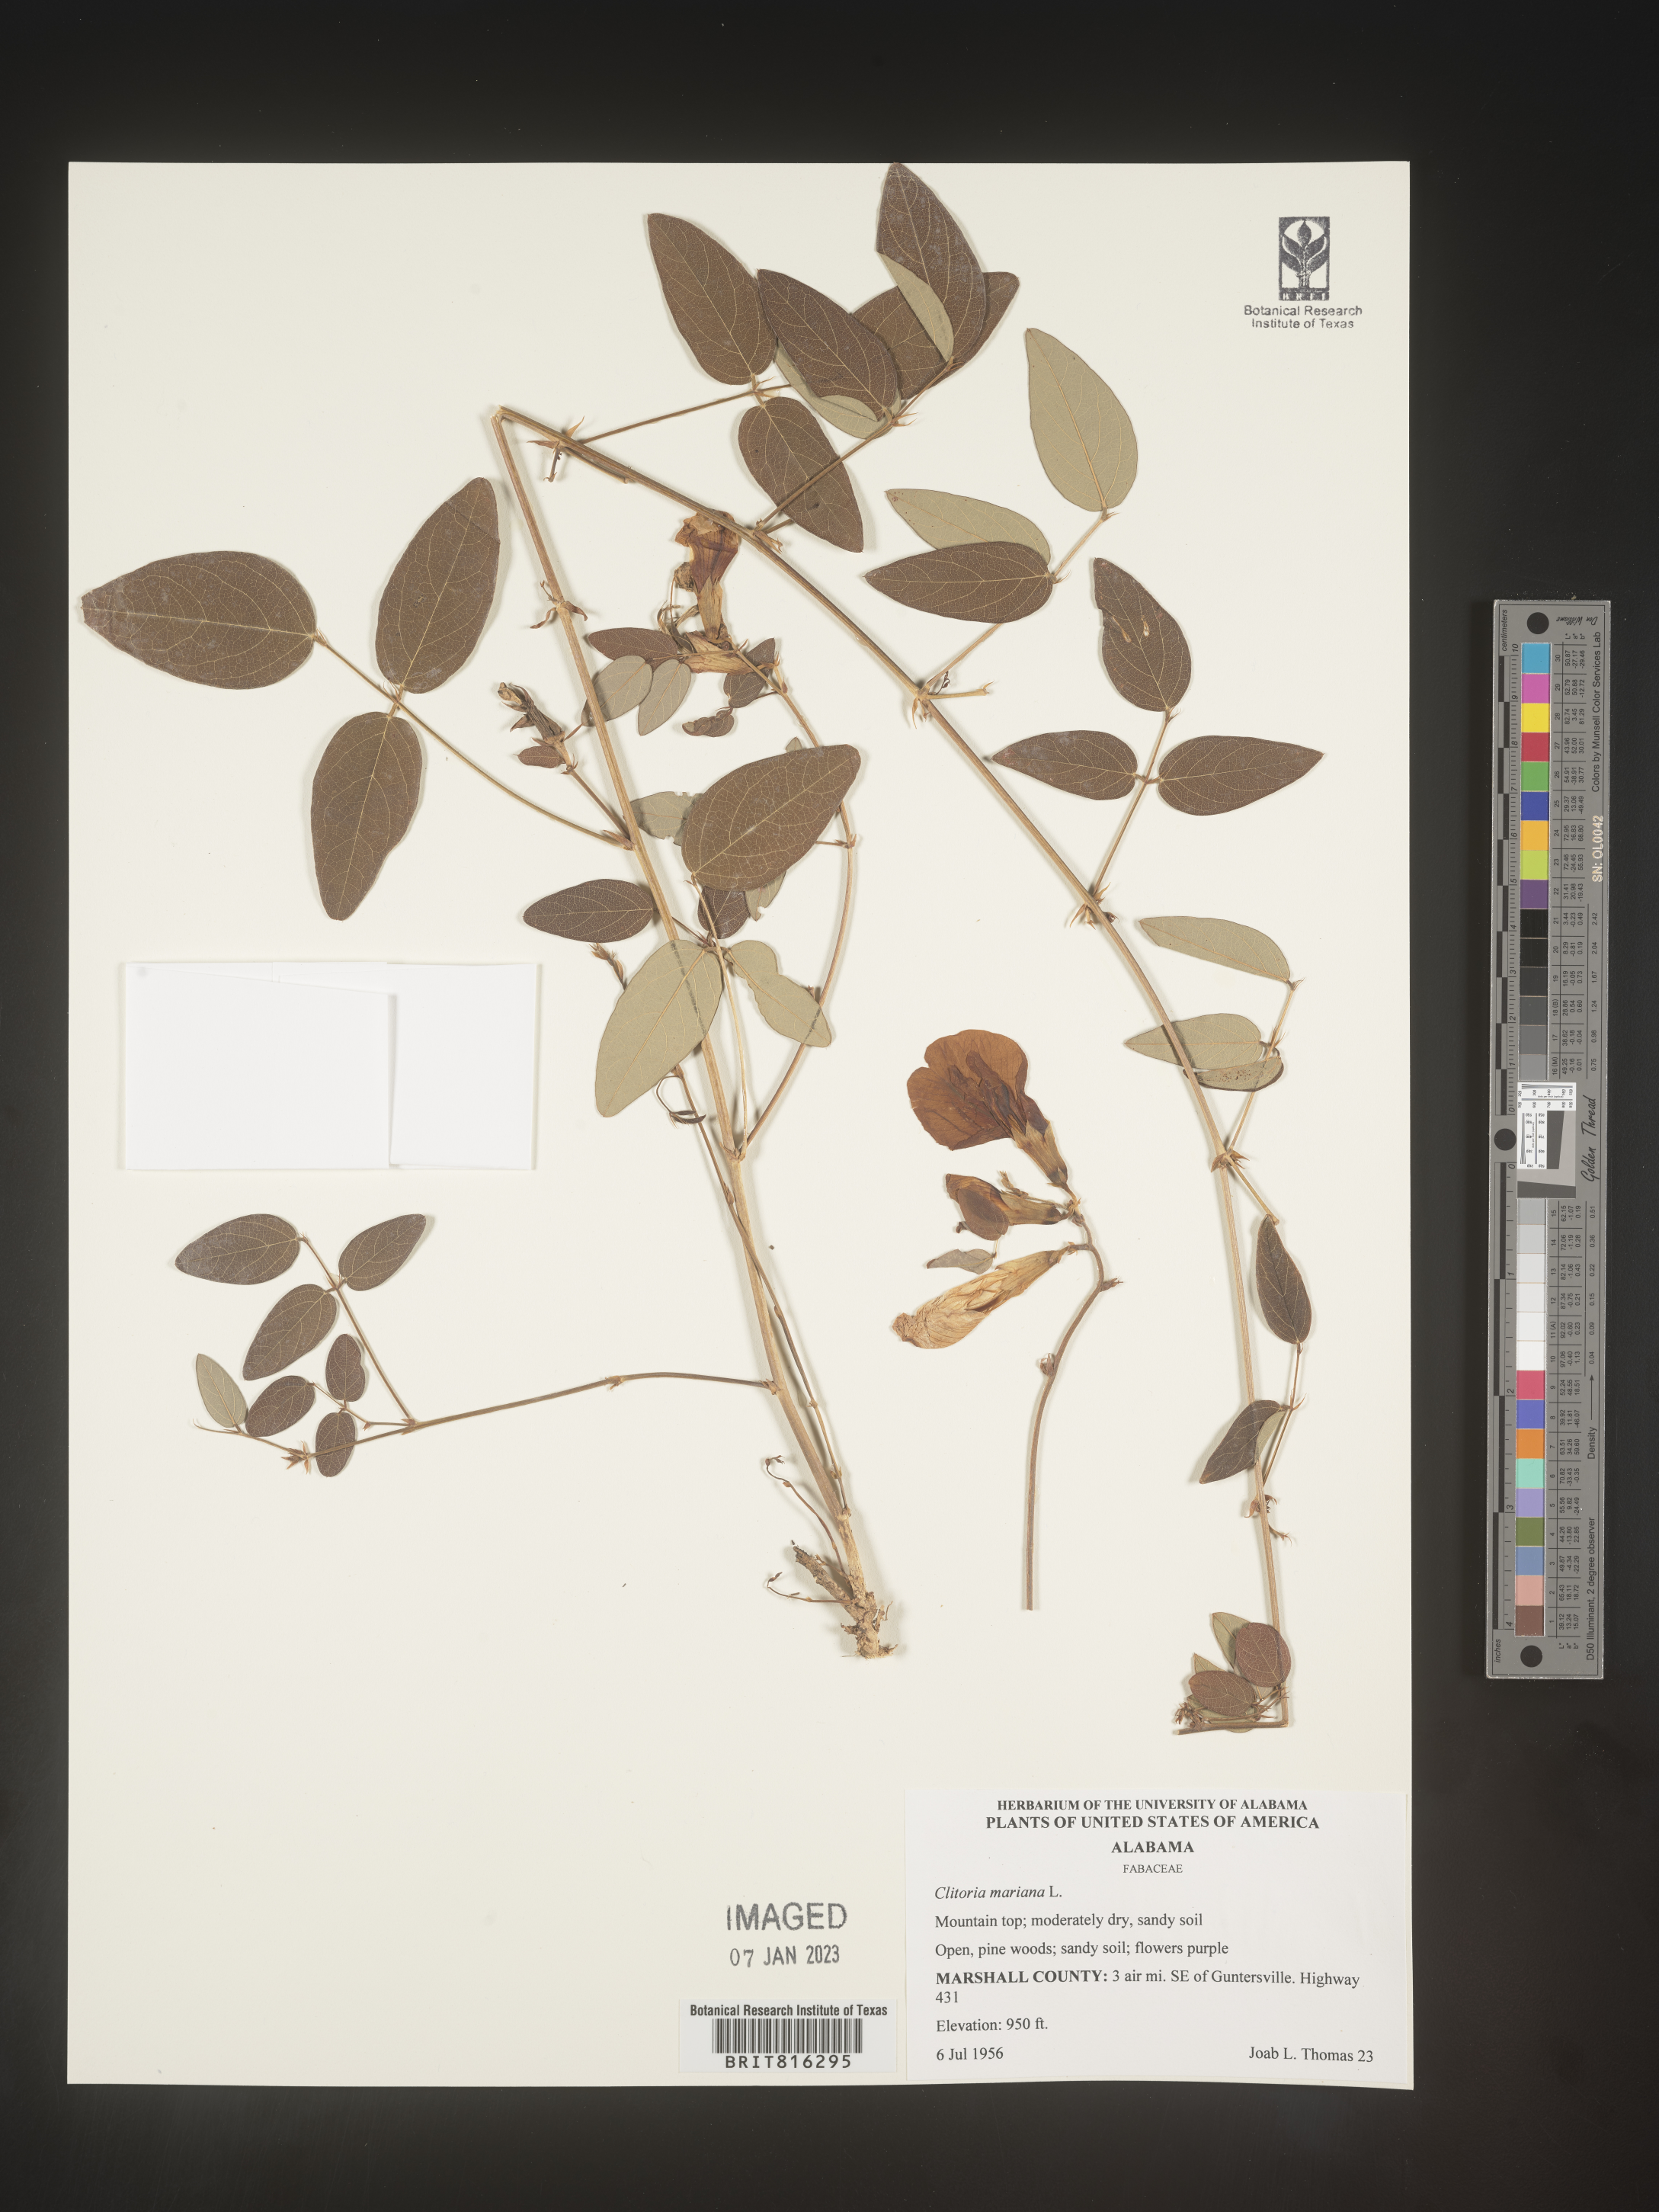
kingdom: Plantae
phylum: Tracheophyta
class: Magnoliopsida
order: Fabales
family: Fabaceae
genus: Clitoria
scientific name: Clitoria mariana
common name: Butterfly-pea
